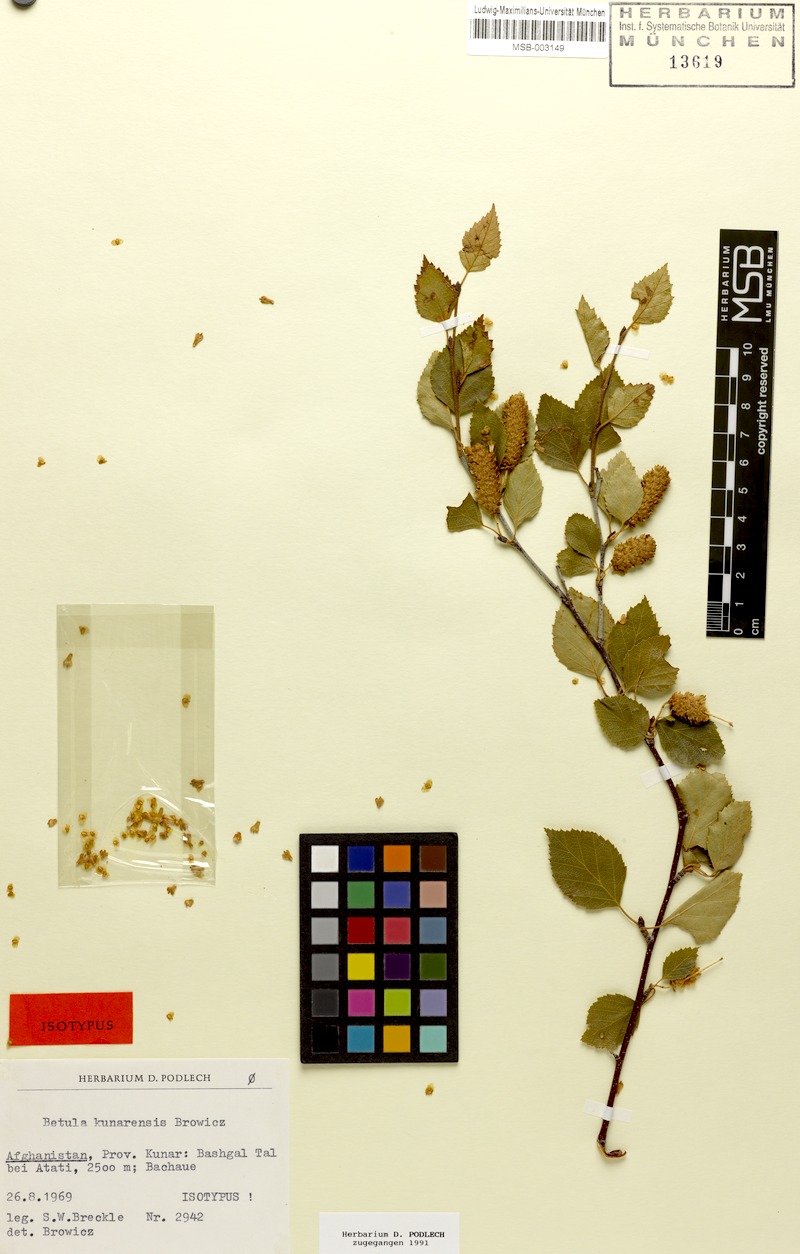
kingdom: Plantae
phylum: Tracheophyta
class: Magnoliopsida
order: Fagales
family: Betulaceae
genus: Betula
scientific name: Betula utilis
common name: Himalayan birch
